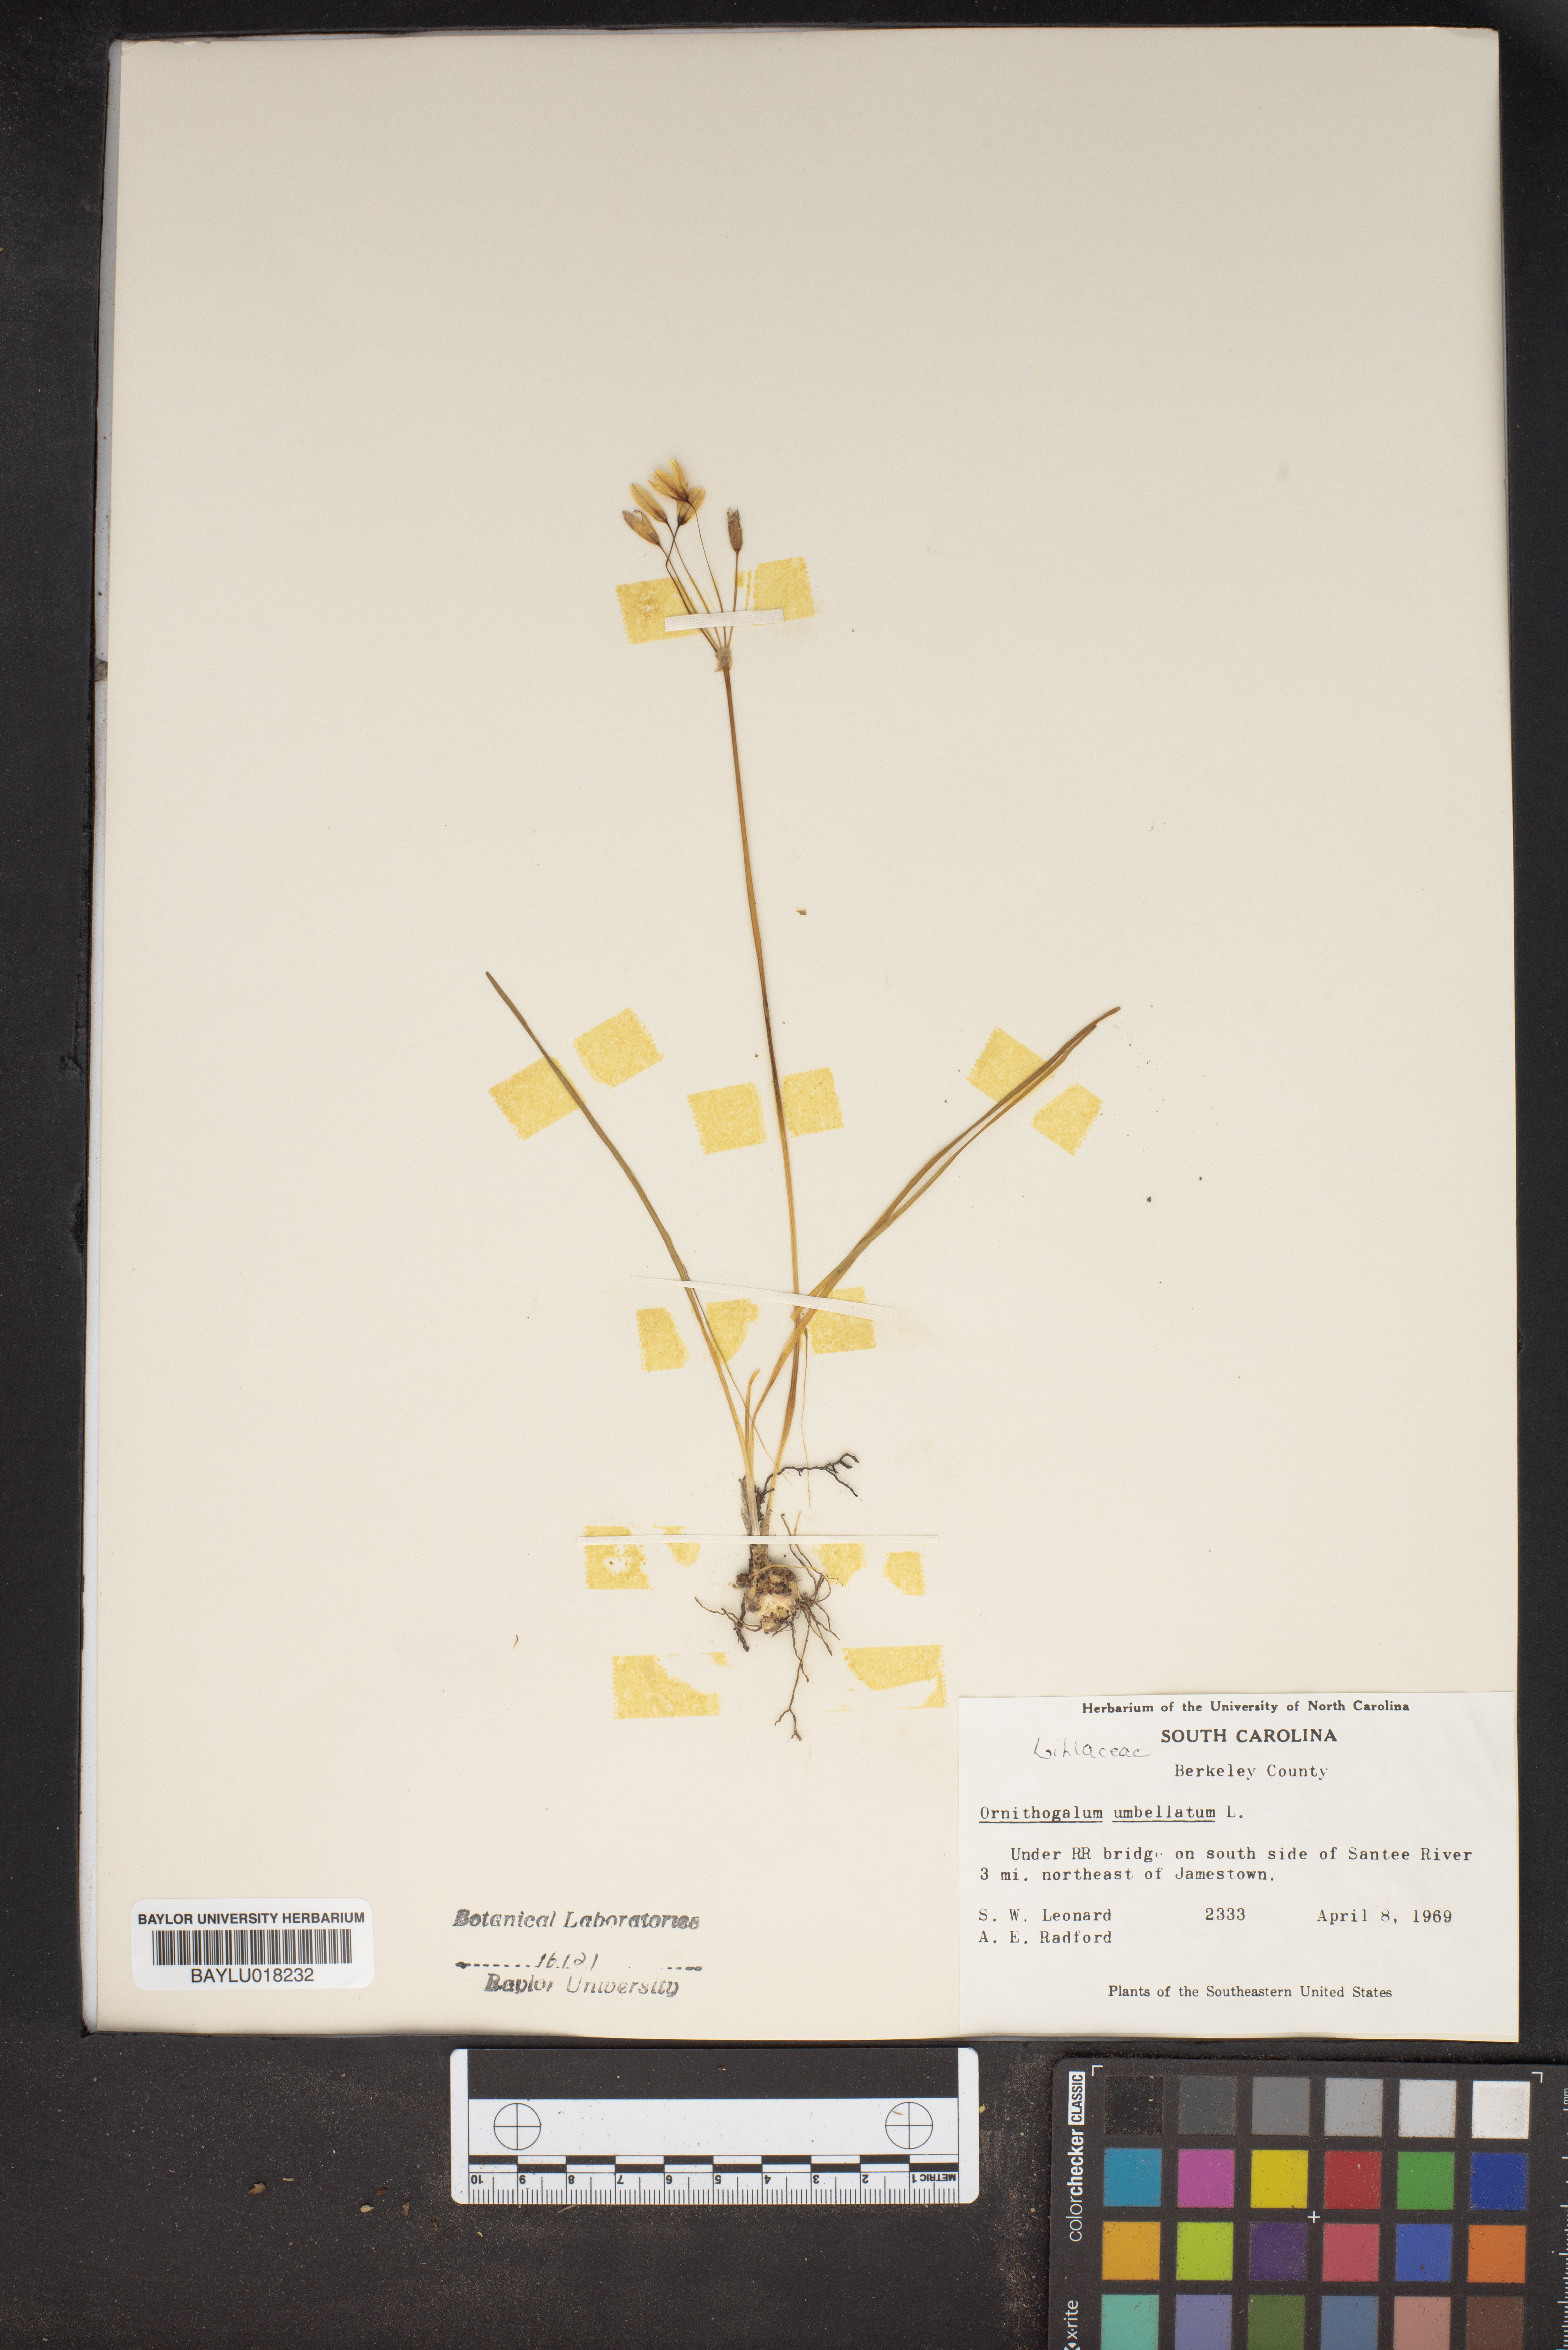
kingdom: Plantae
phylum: Tracheophyta
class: Liliopsida
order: Asparagales
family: Asparagaceae
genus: Ornithogalum
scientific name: Ornithogalum umbellatum
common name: Garden star-of-bethlehem
